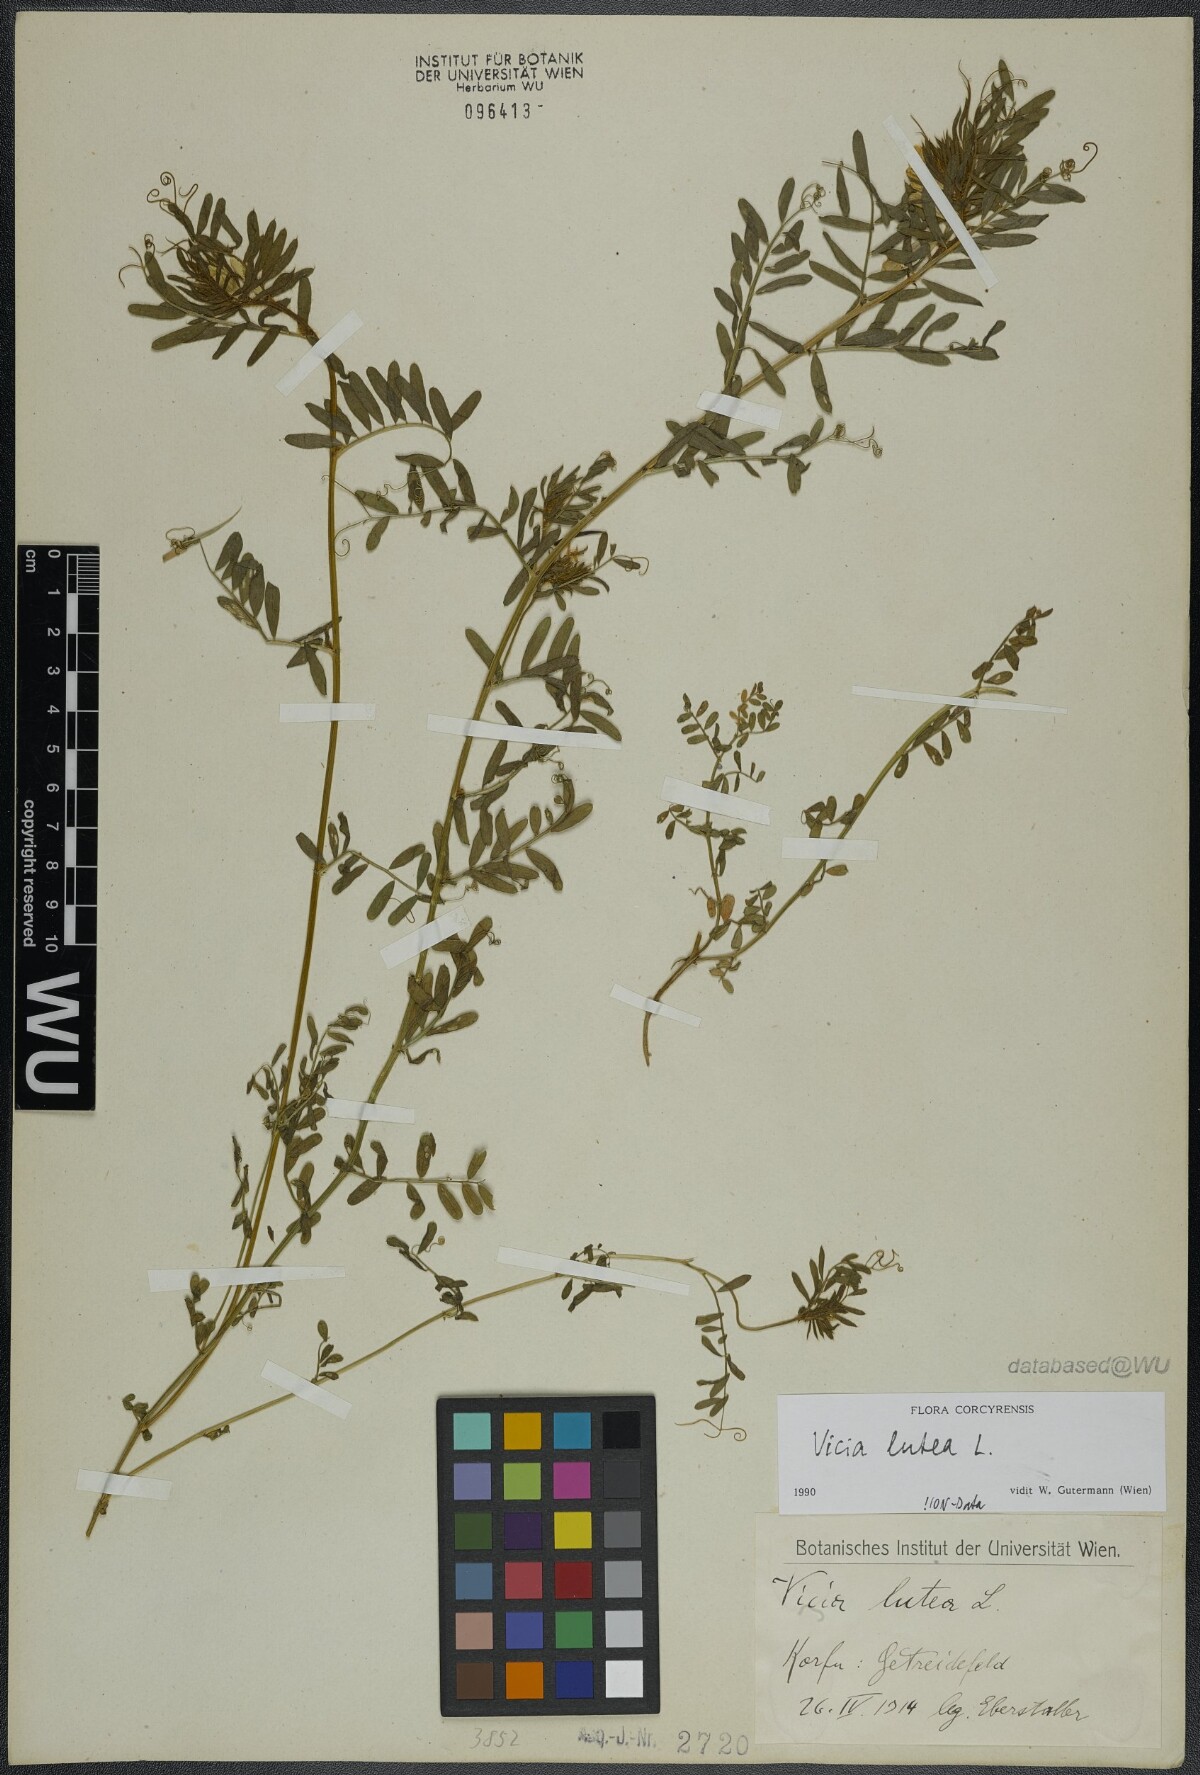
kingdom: Plantae
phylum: Tracheophyta
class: Magnoliopsida
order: Fabales
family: Fabaceae
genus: Vicia
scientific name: Vicia lutea
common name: Smooth yellow vetch
